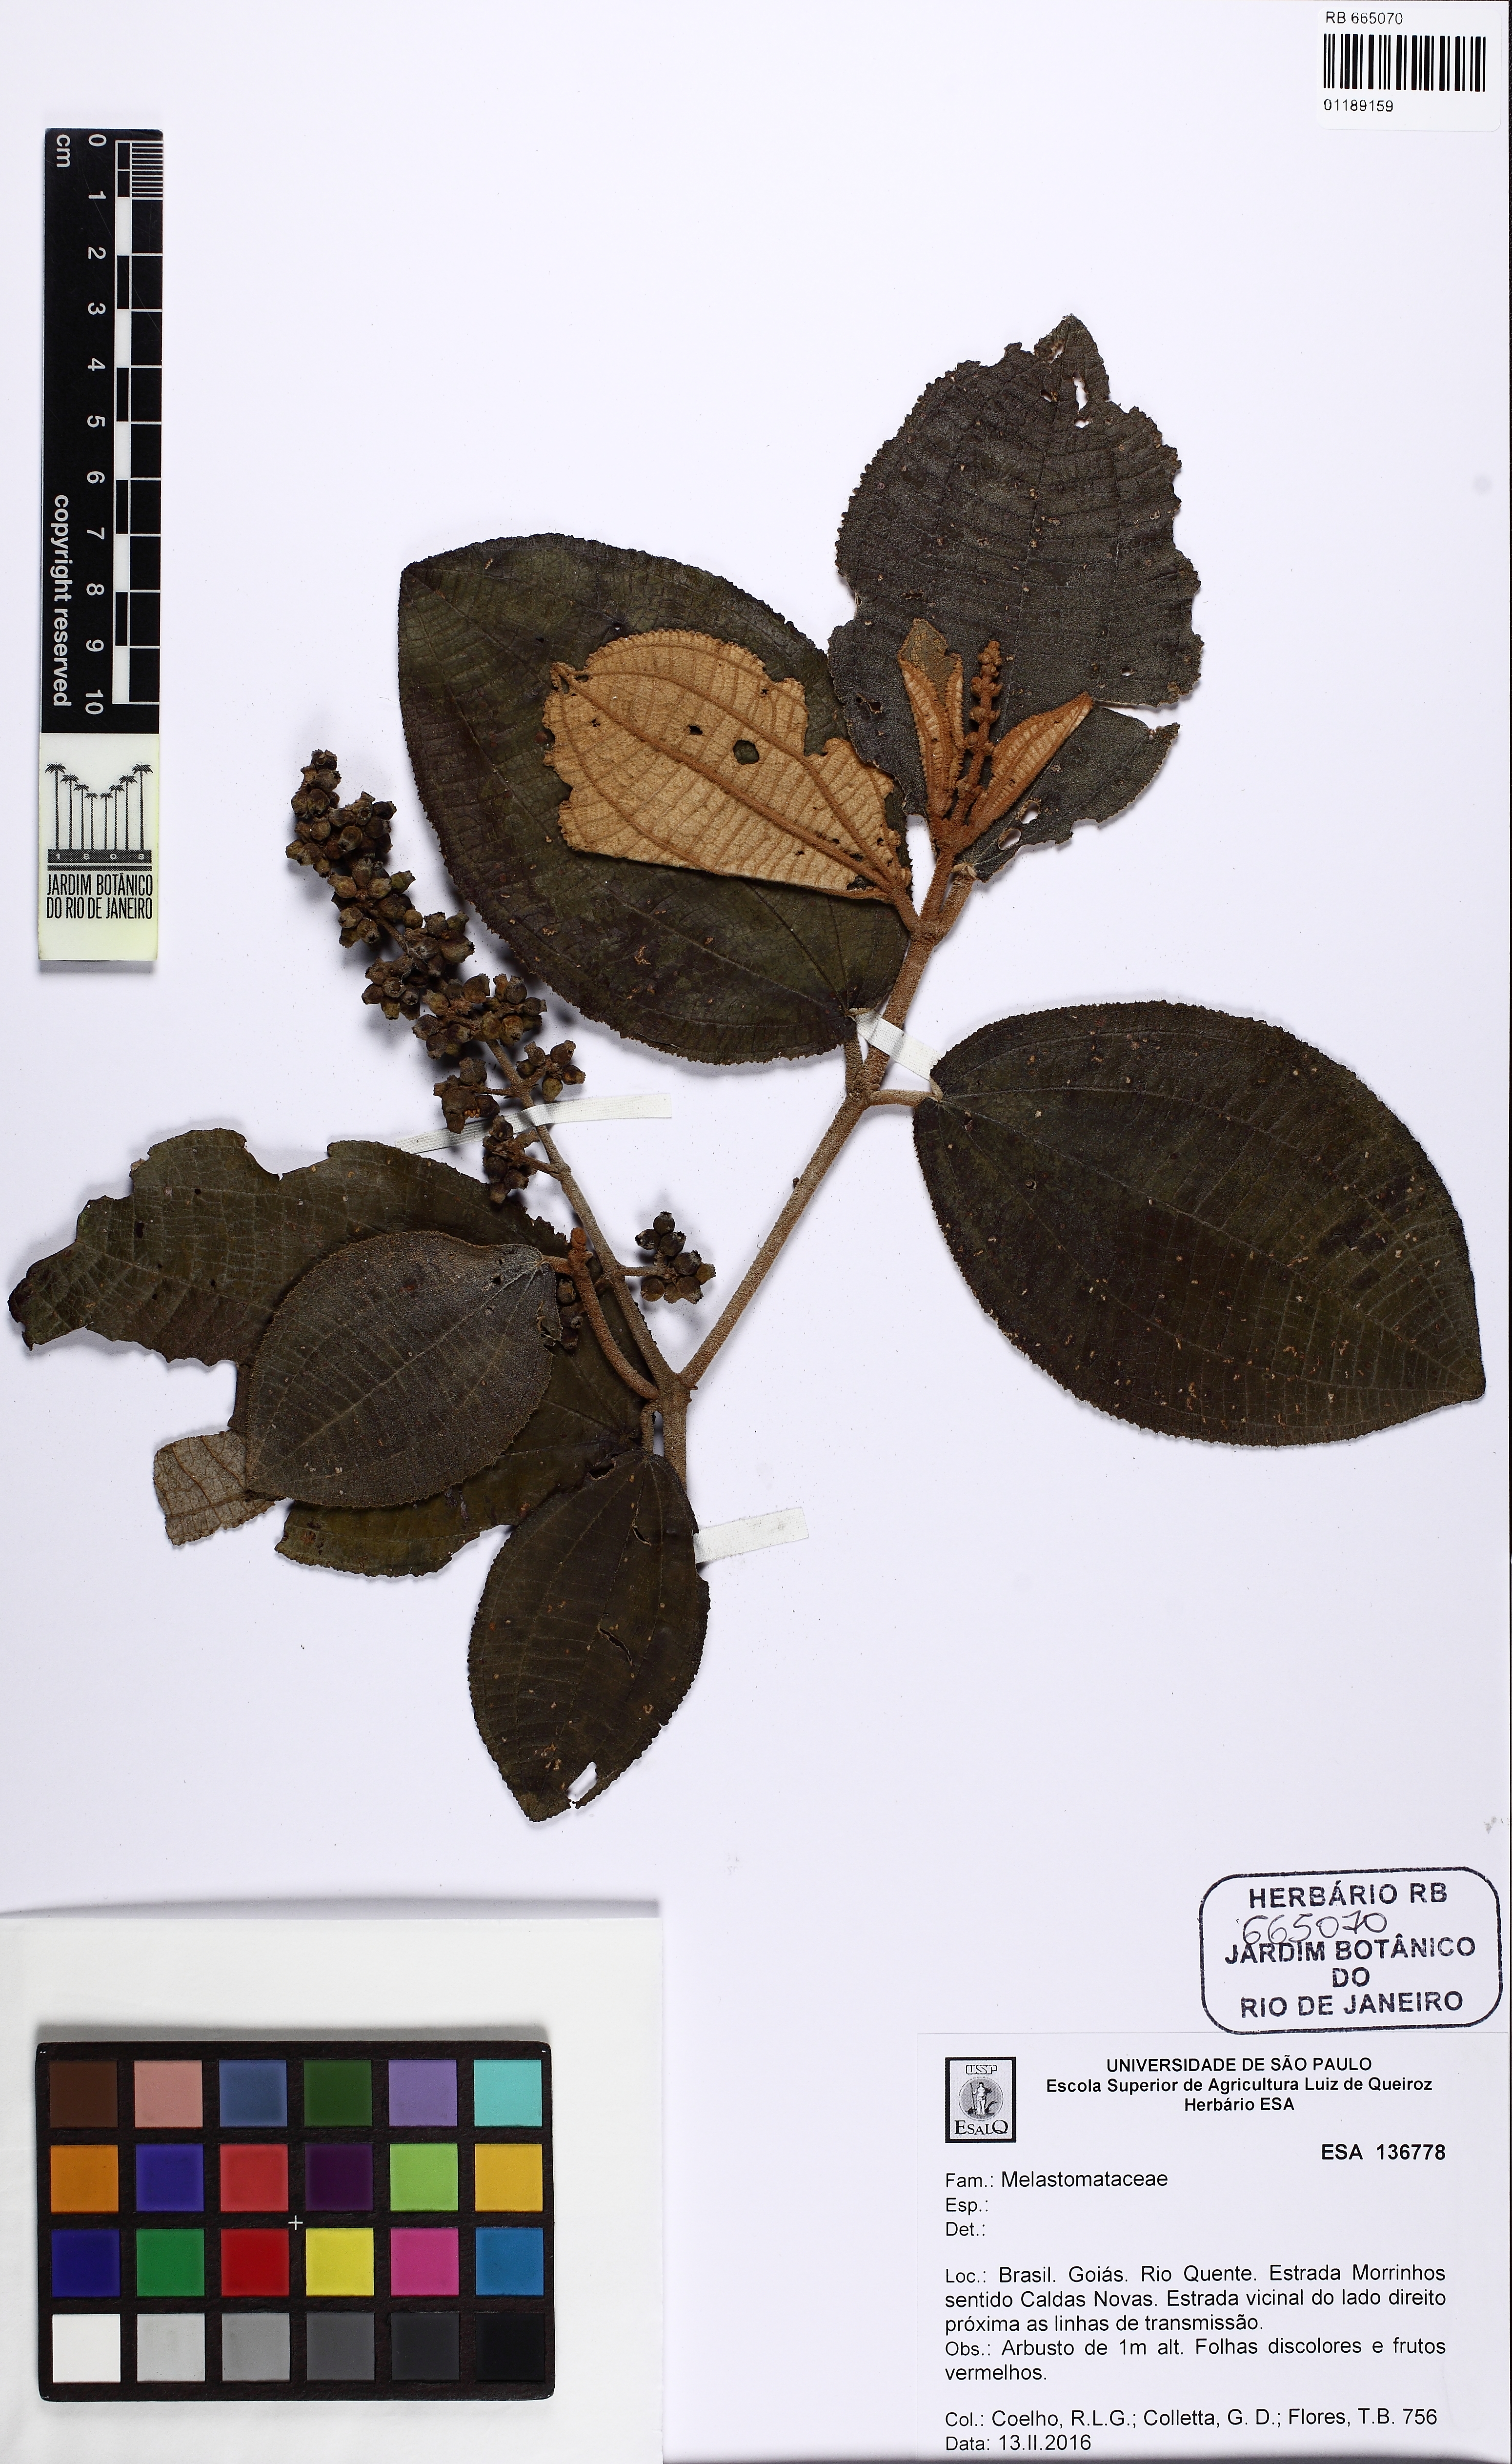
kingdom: Plantae
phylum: Tracheophyta
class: Magnoliopsida
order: Myrtales
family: Melastomataceae
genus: Miconia
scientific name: Miconia macrothyrsa
